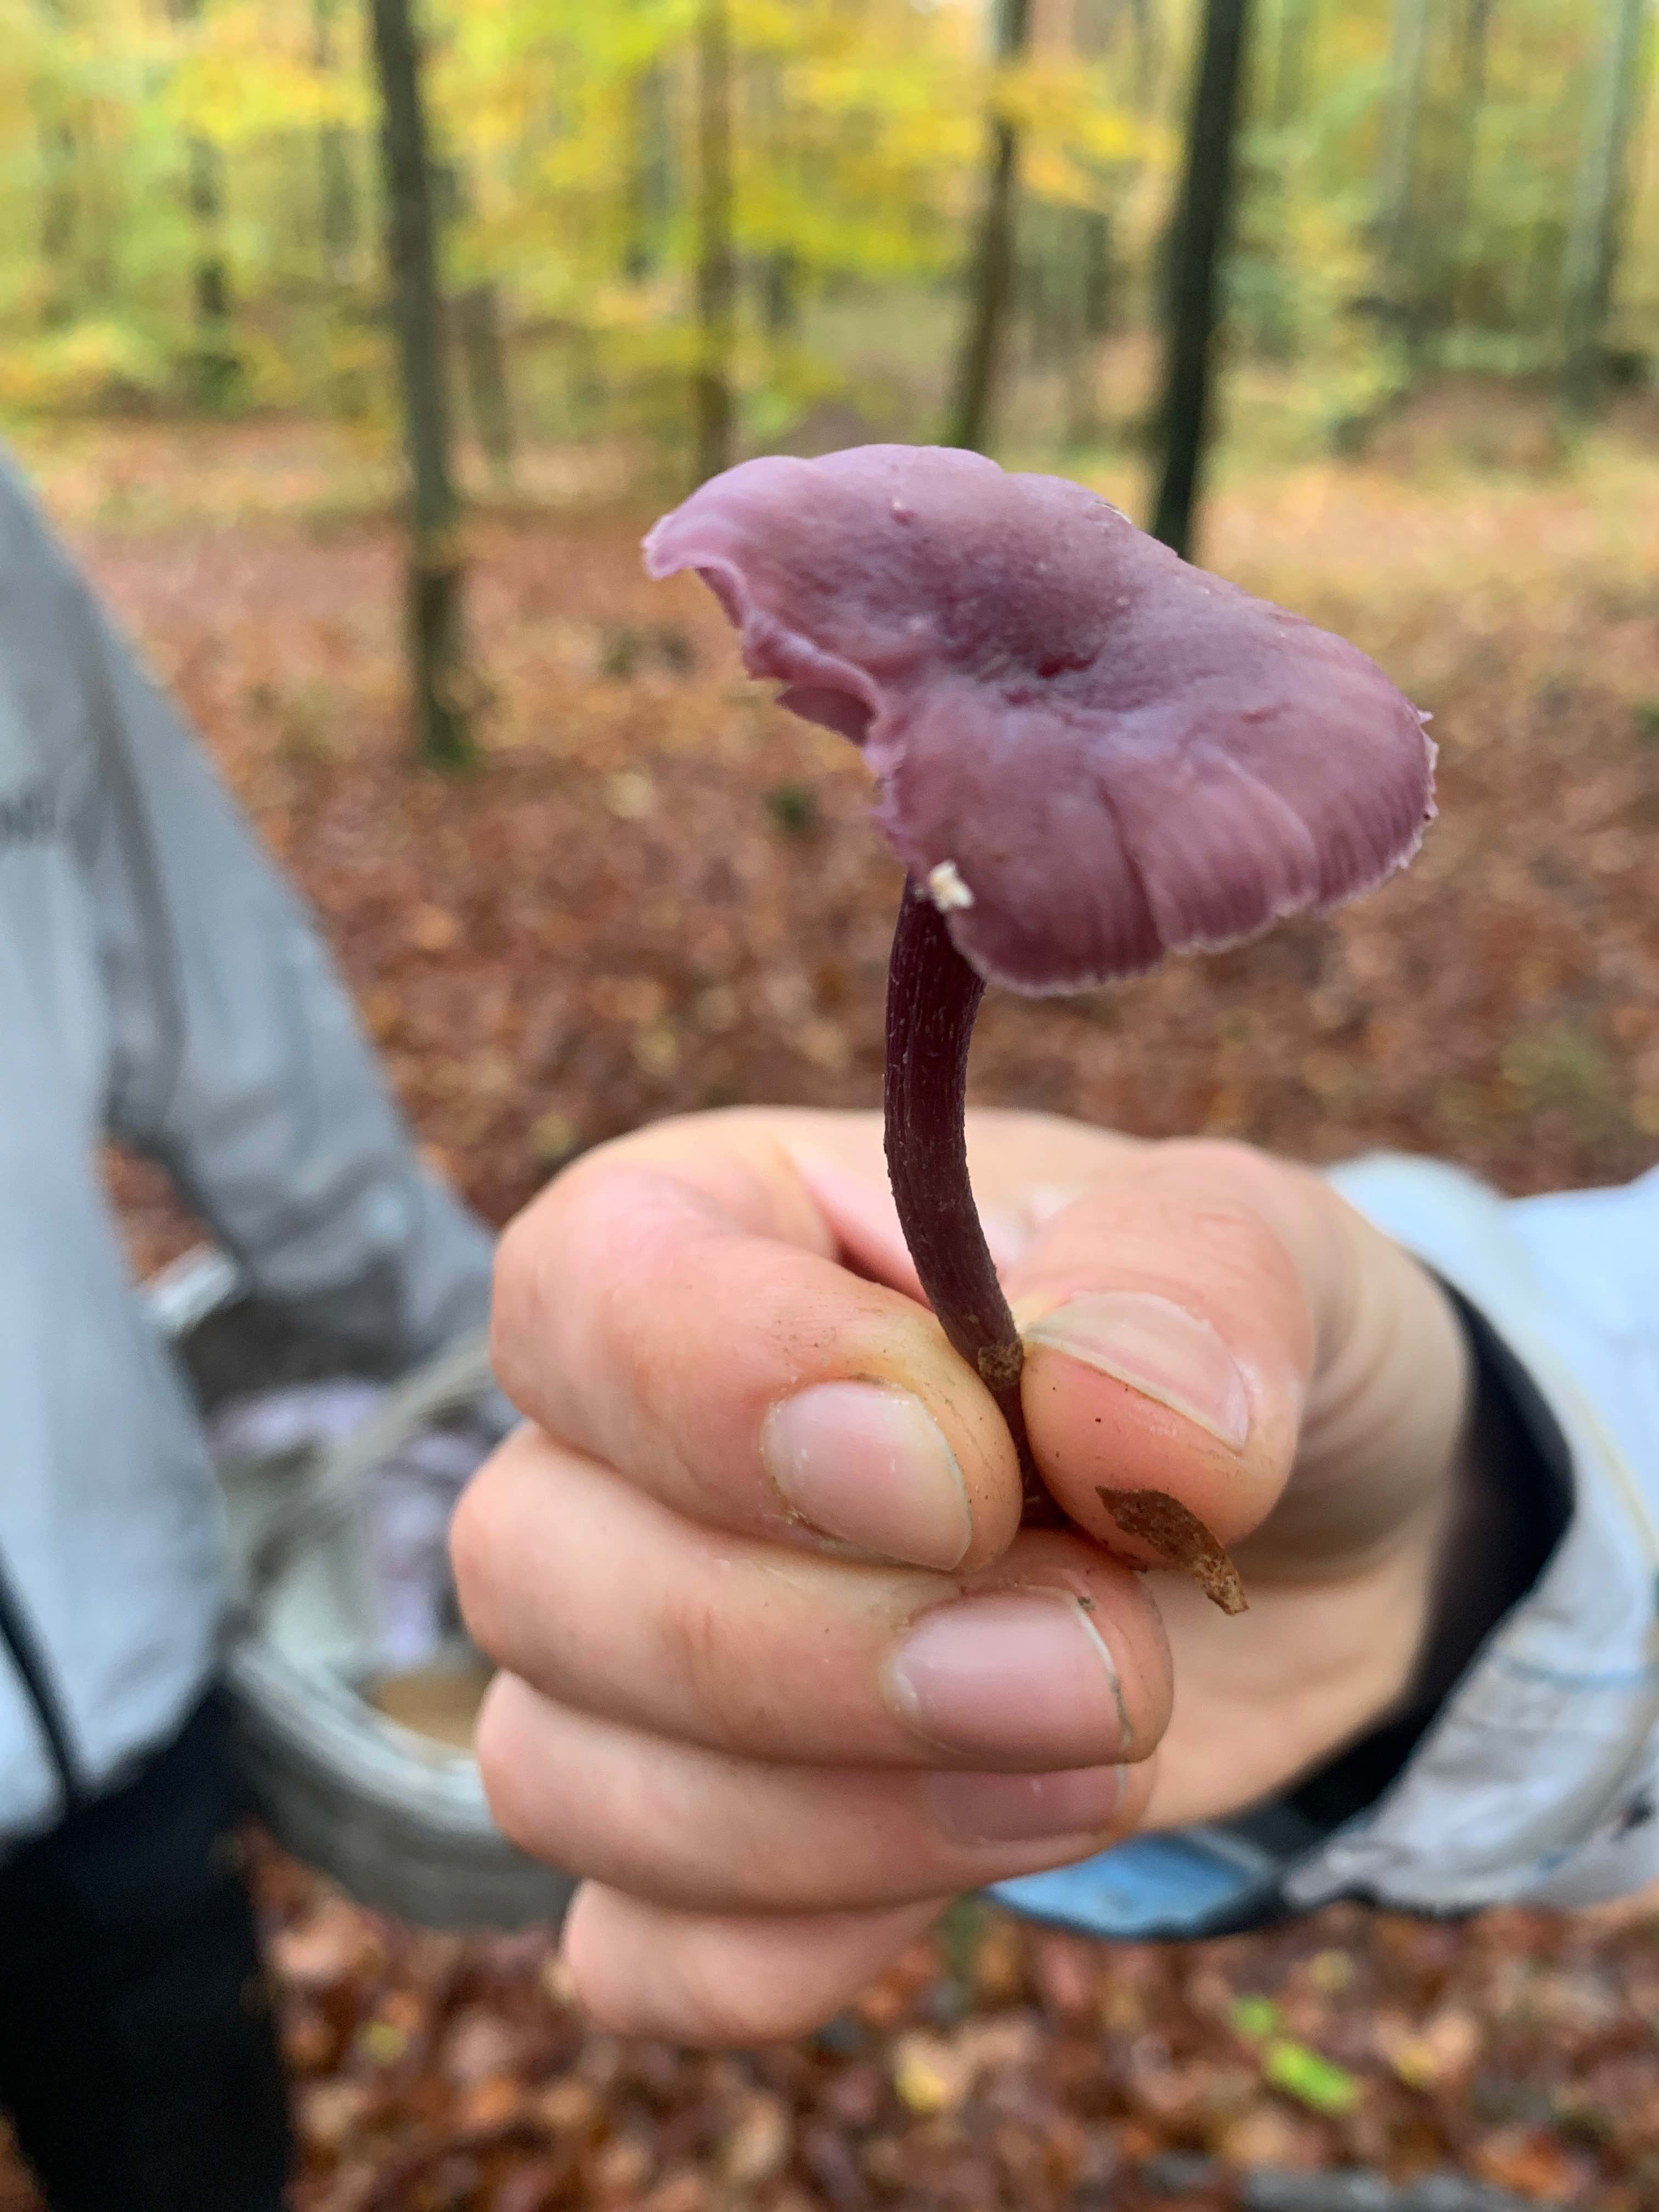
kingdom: Fungi
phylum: Basidiomycota
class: Agaricomycetes
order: Agaricales
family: Hydnangiaceae
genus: Laccaria
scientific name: Laccaria amethystina
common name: violet ametysthat
